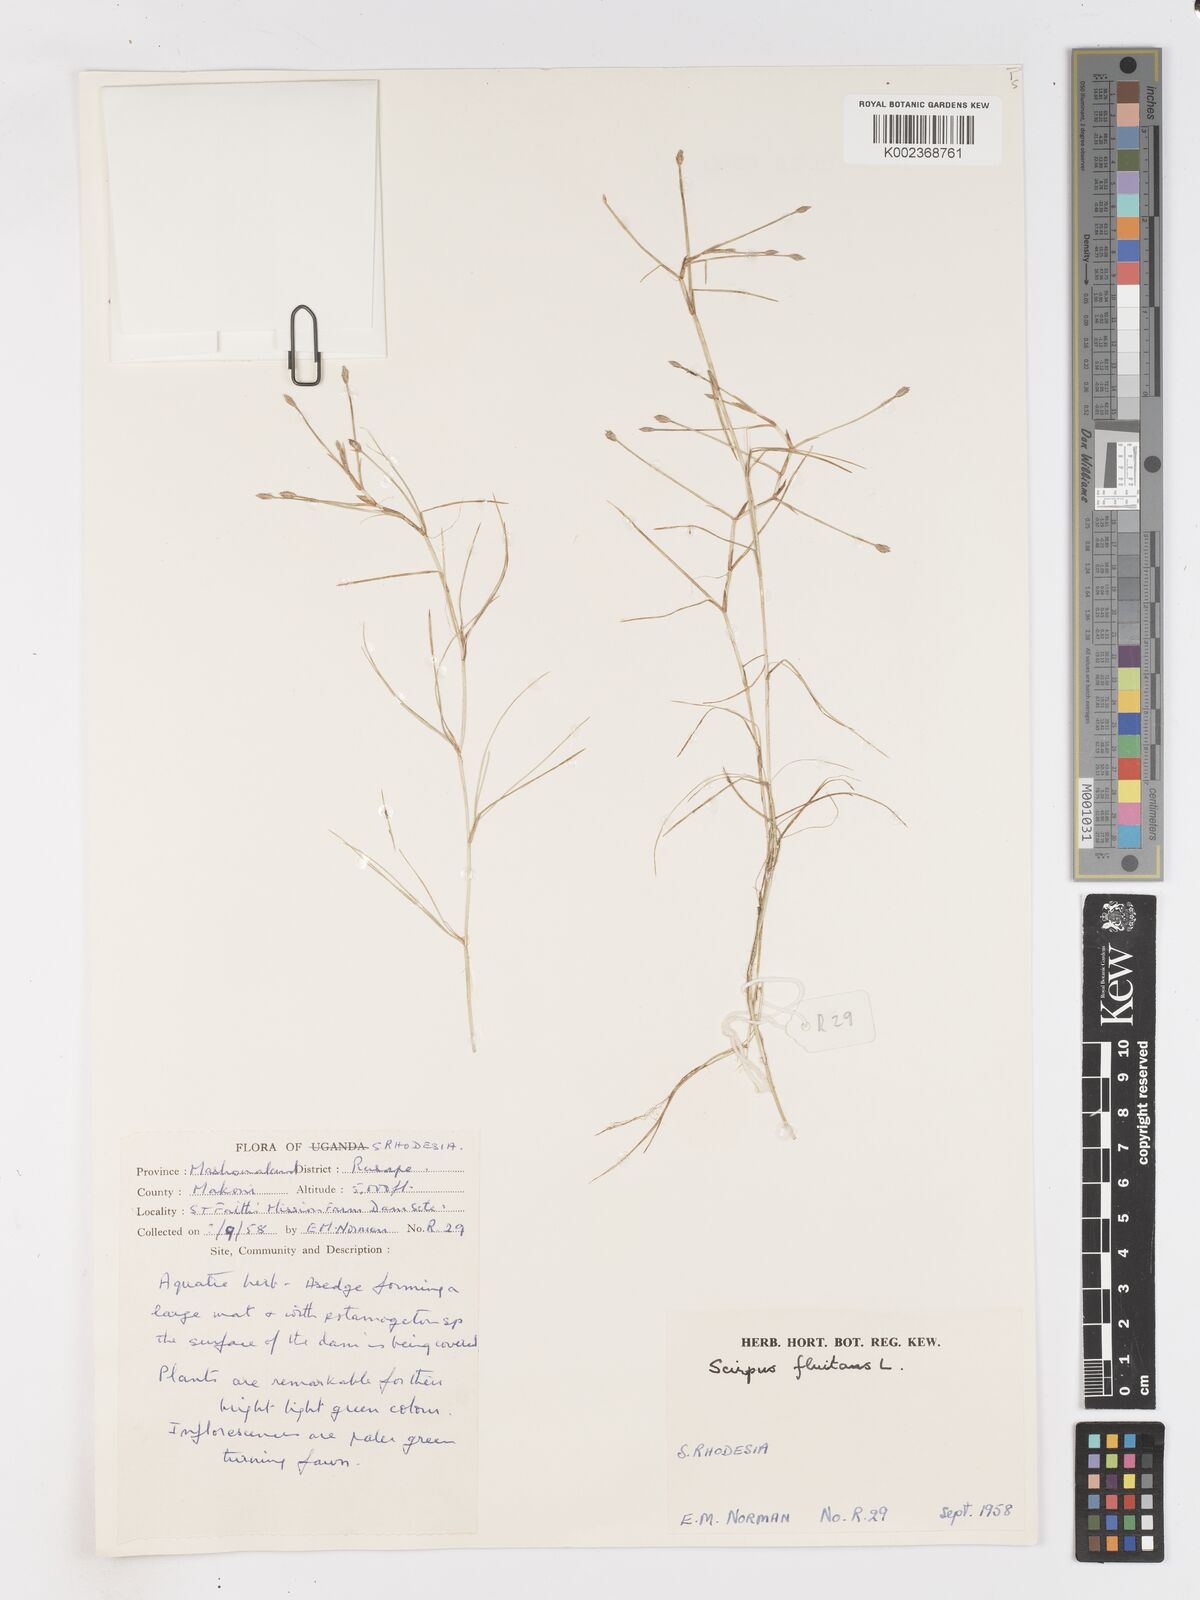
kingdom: Plantae
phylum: Tracheophyta
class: Liliopsida
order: Poales
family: Cyperaceae
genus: Isolepis
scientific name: Isolepis fluitans
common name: Floating club-rush
